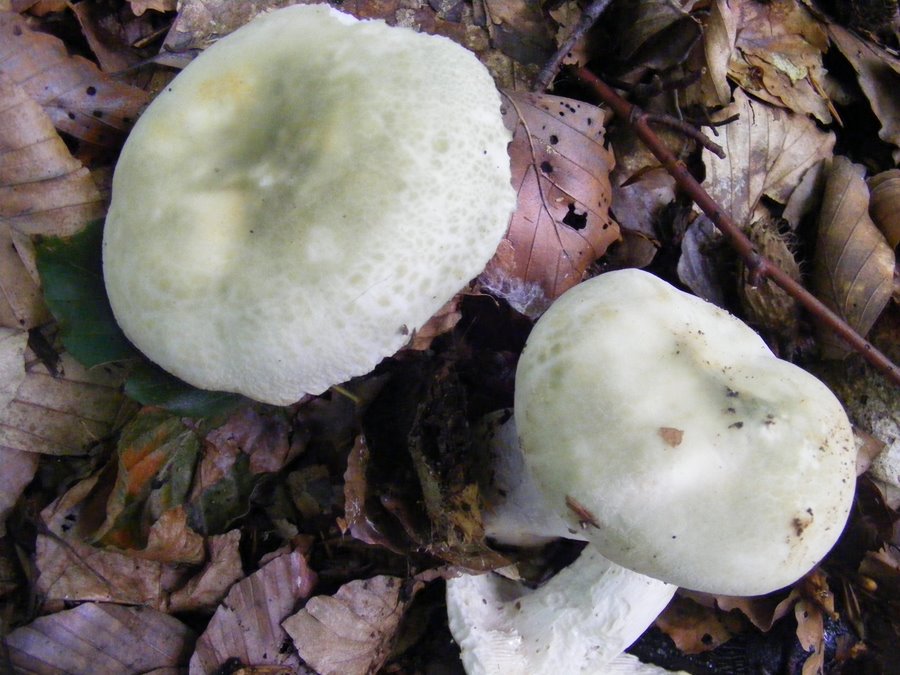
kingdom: Fungi
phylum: Basidiomycota
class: Agaricomycetes
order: Russulales
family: Russulaceae
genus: Russula
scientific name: Russula virescens
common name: spanskgrøn skørhat
